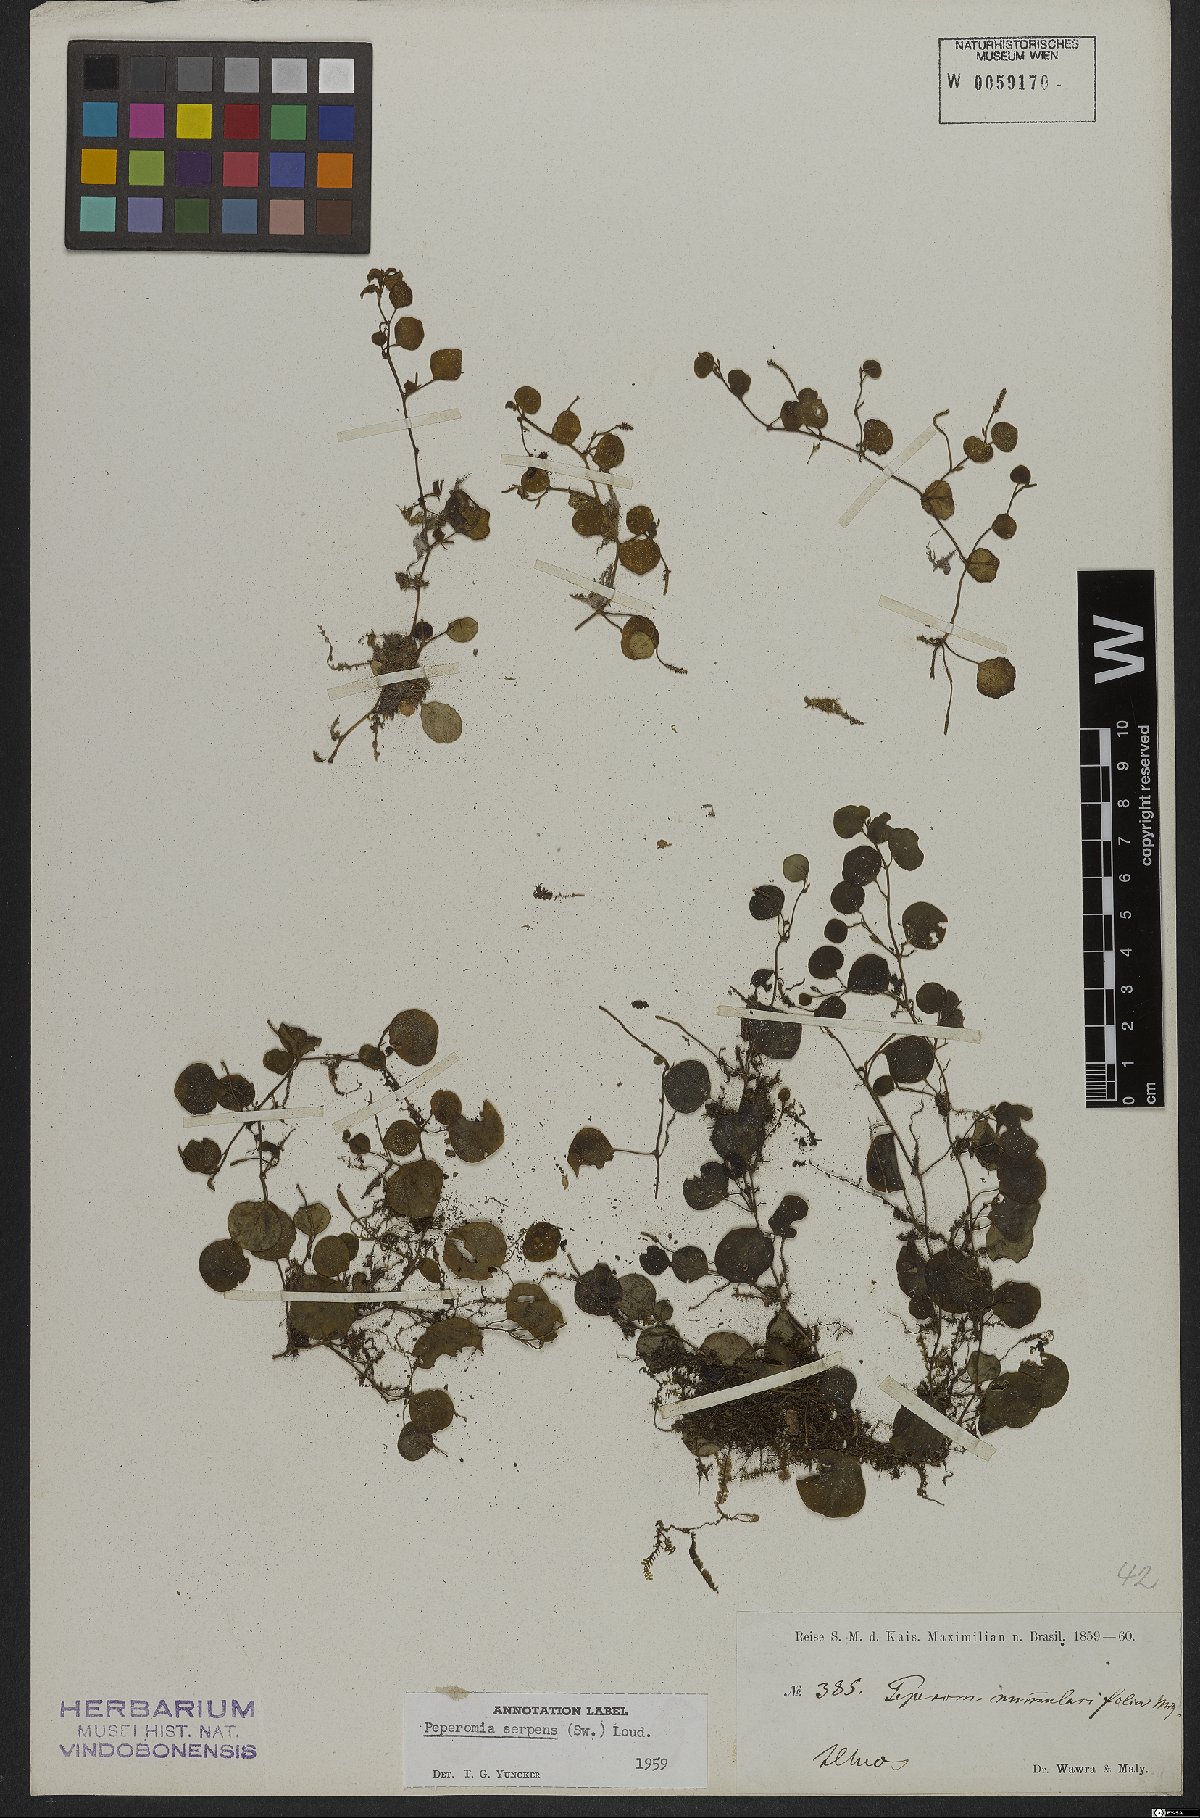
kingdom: Plantae
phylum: Tracheophyta
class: Magnoliopsida
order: Piperales
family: Piperaceae
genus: Peperomia
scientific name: Peperomia serpens
